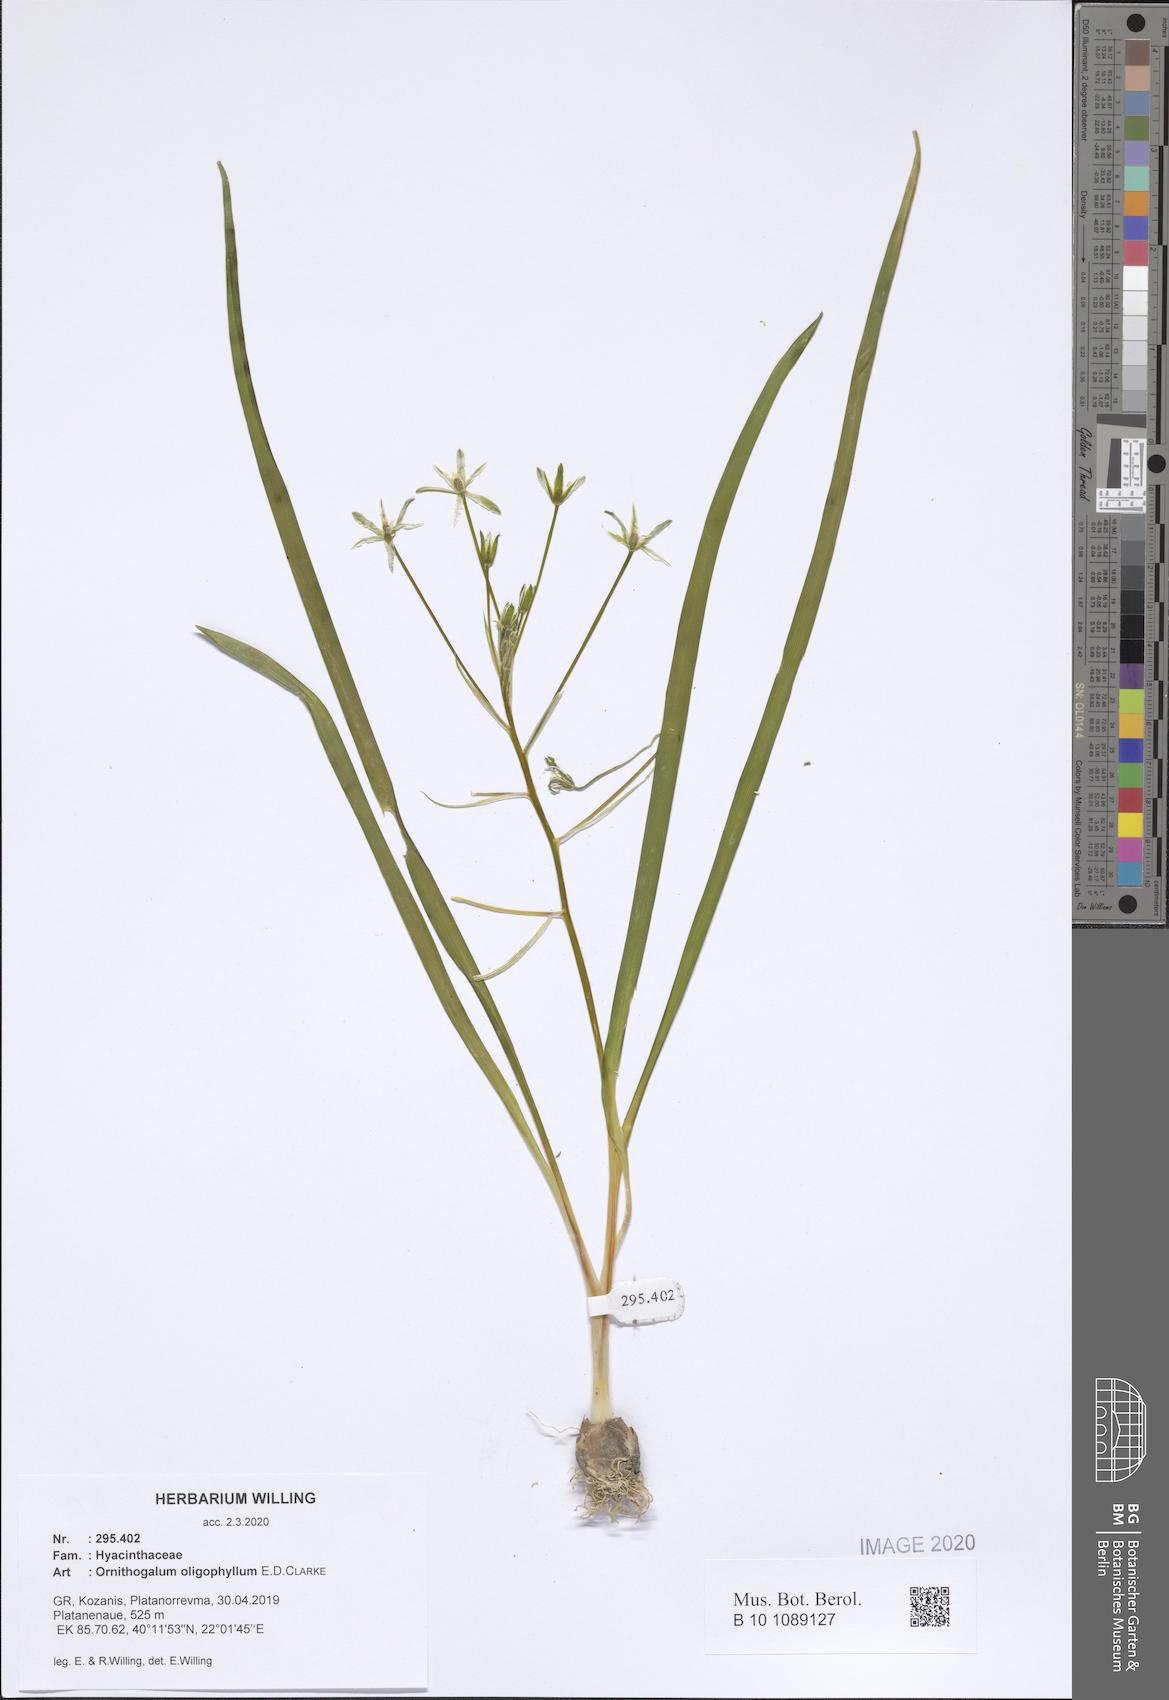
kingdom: Plantae
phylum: Tracheophyta
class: Liliopsida
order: Asparagales
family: Asparagaceae
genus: Ornithogalum
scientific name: Ornithogalum oligophyllum
